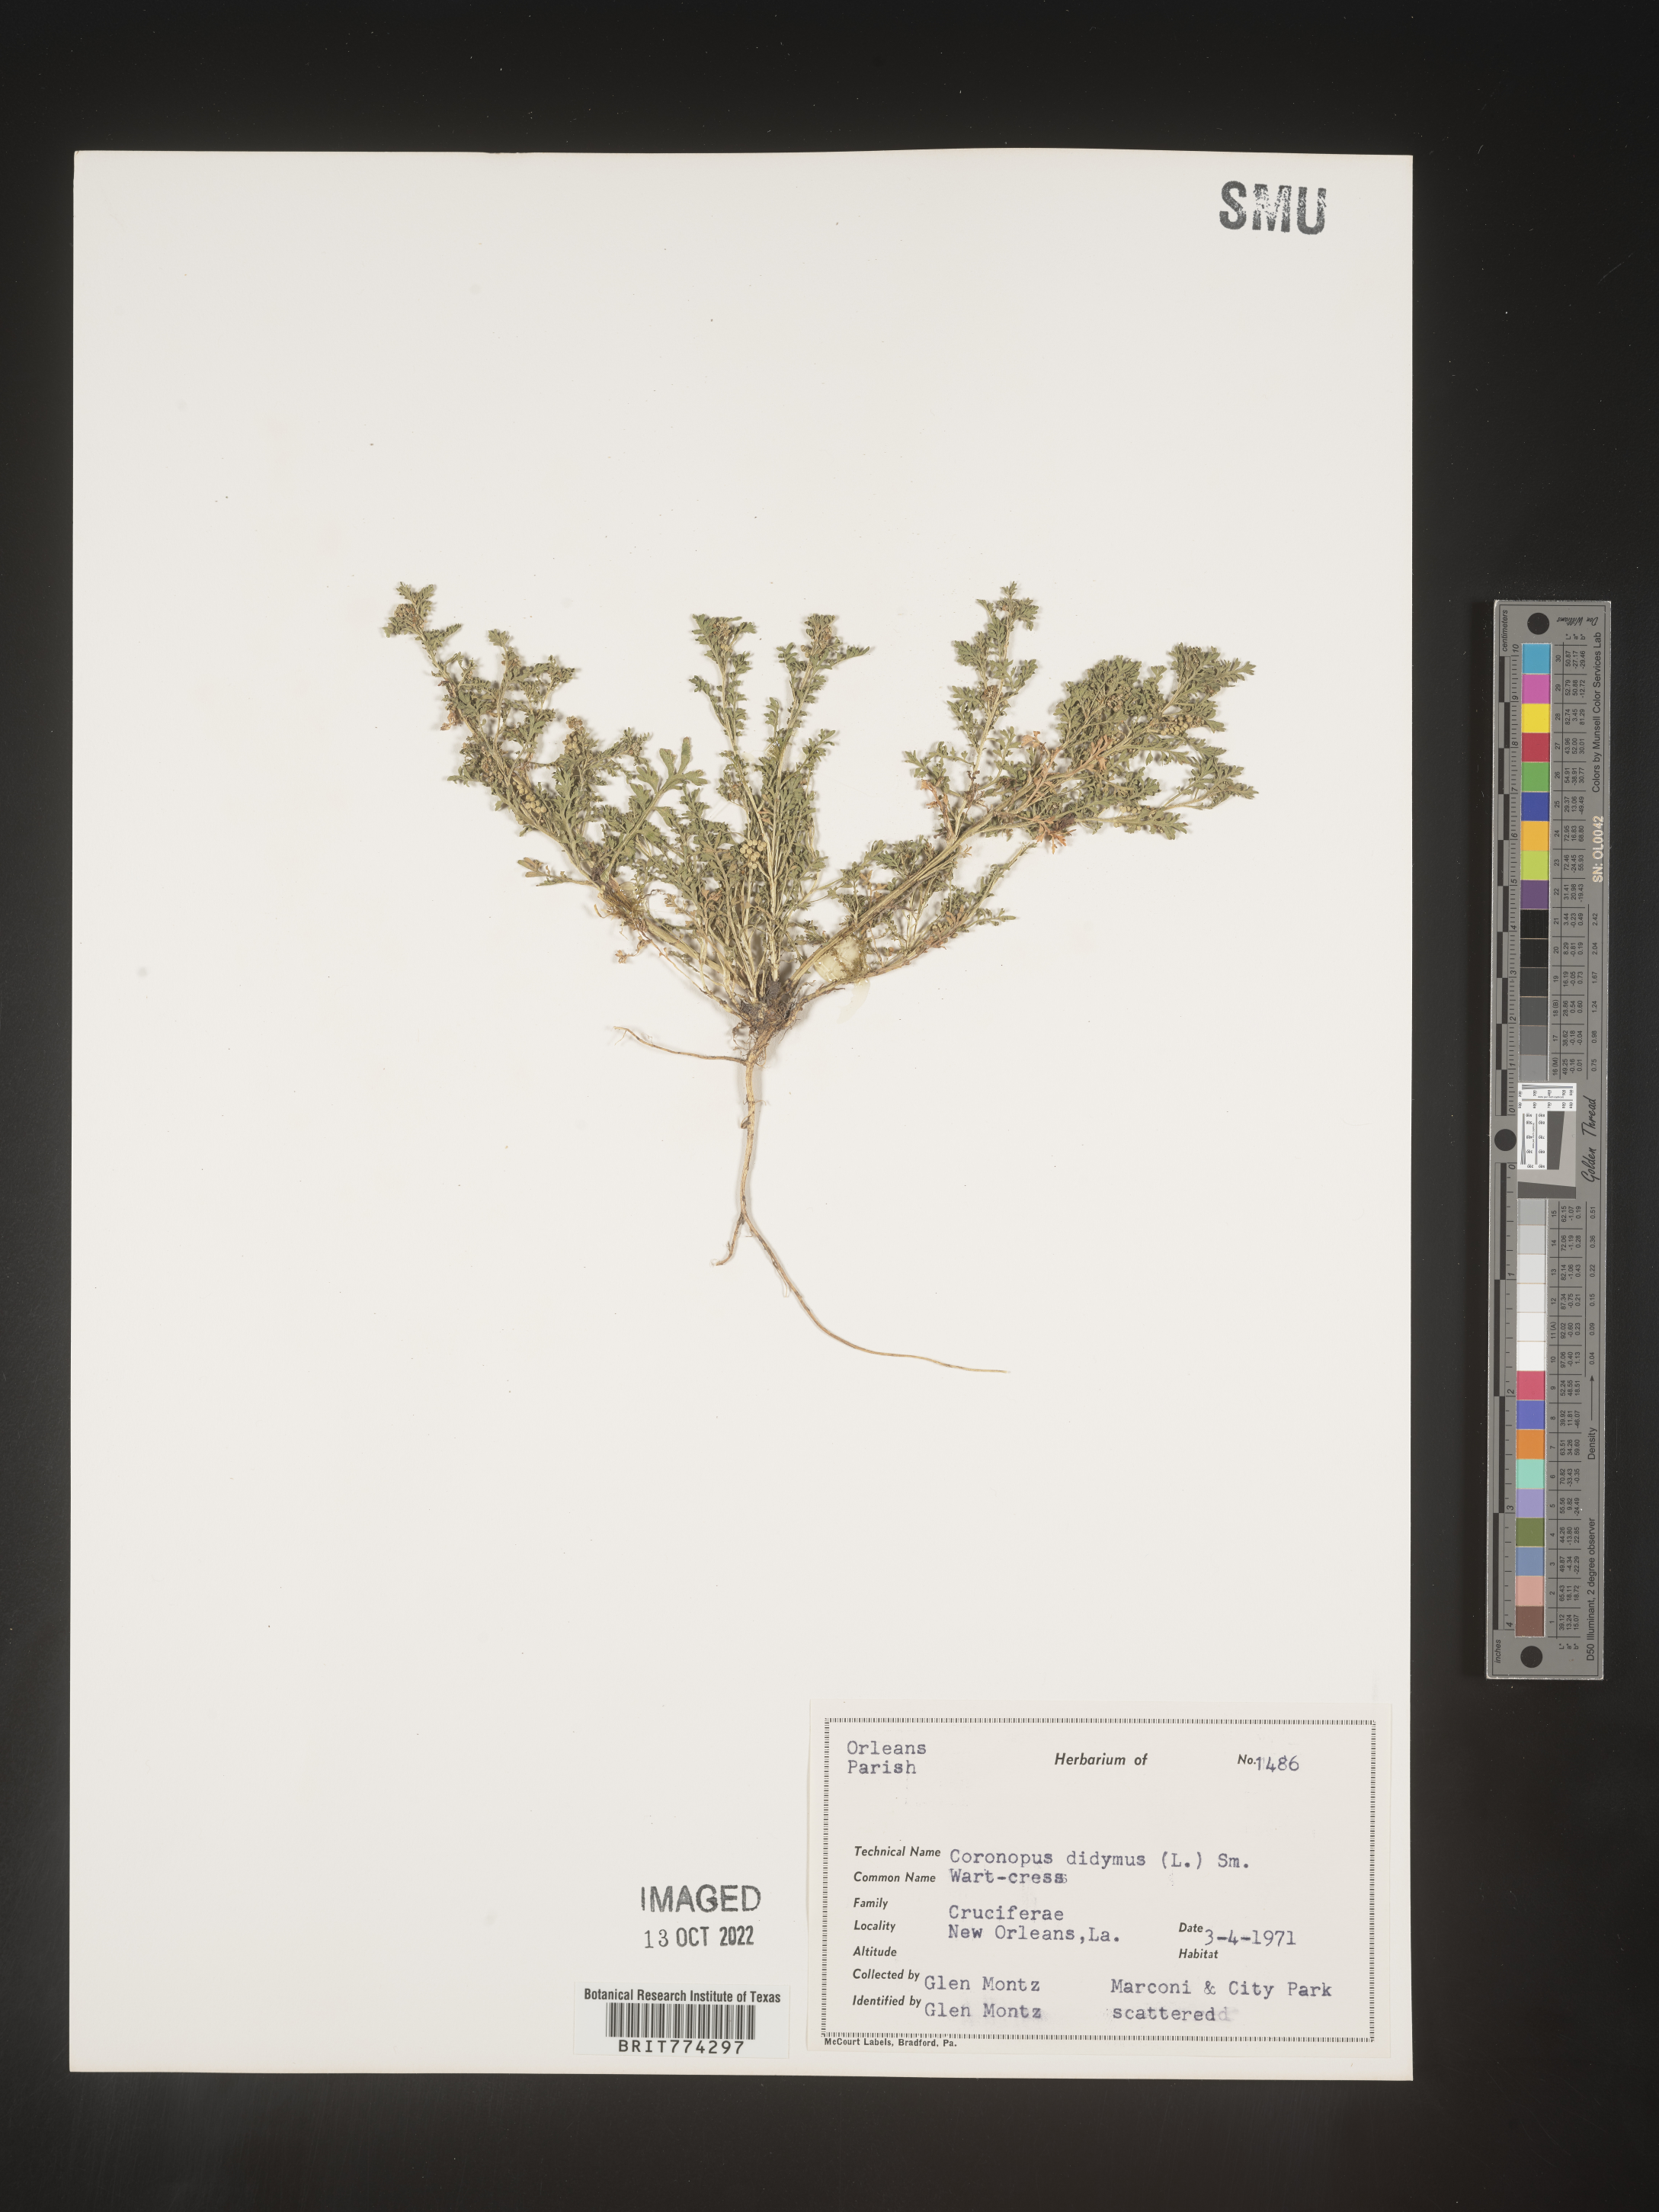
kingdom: Plantae
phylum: Tracheophyta
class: Magnoliopsida
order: Brassicales
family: Brassicaceae
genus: Coronopus
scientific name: Coronopus
